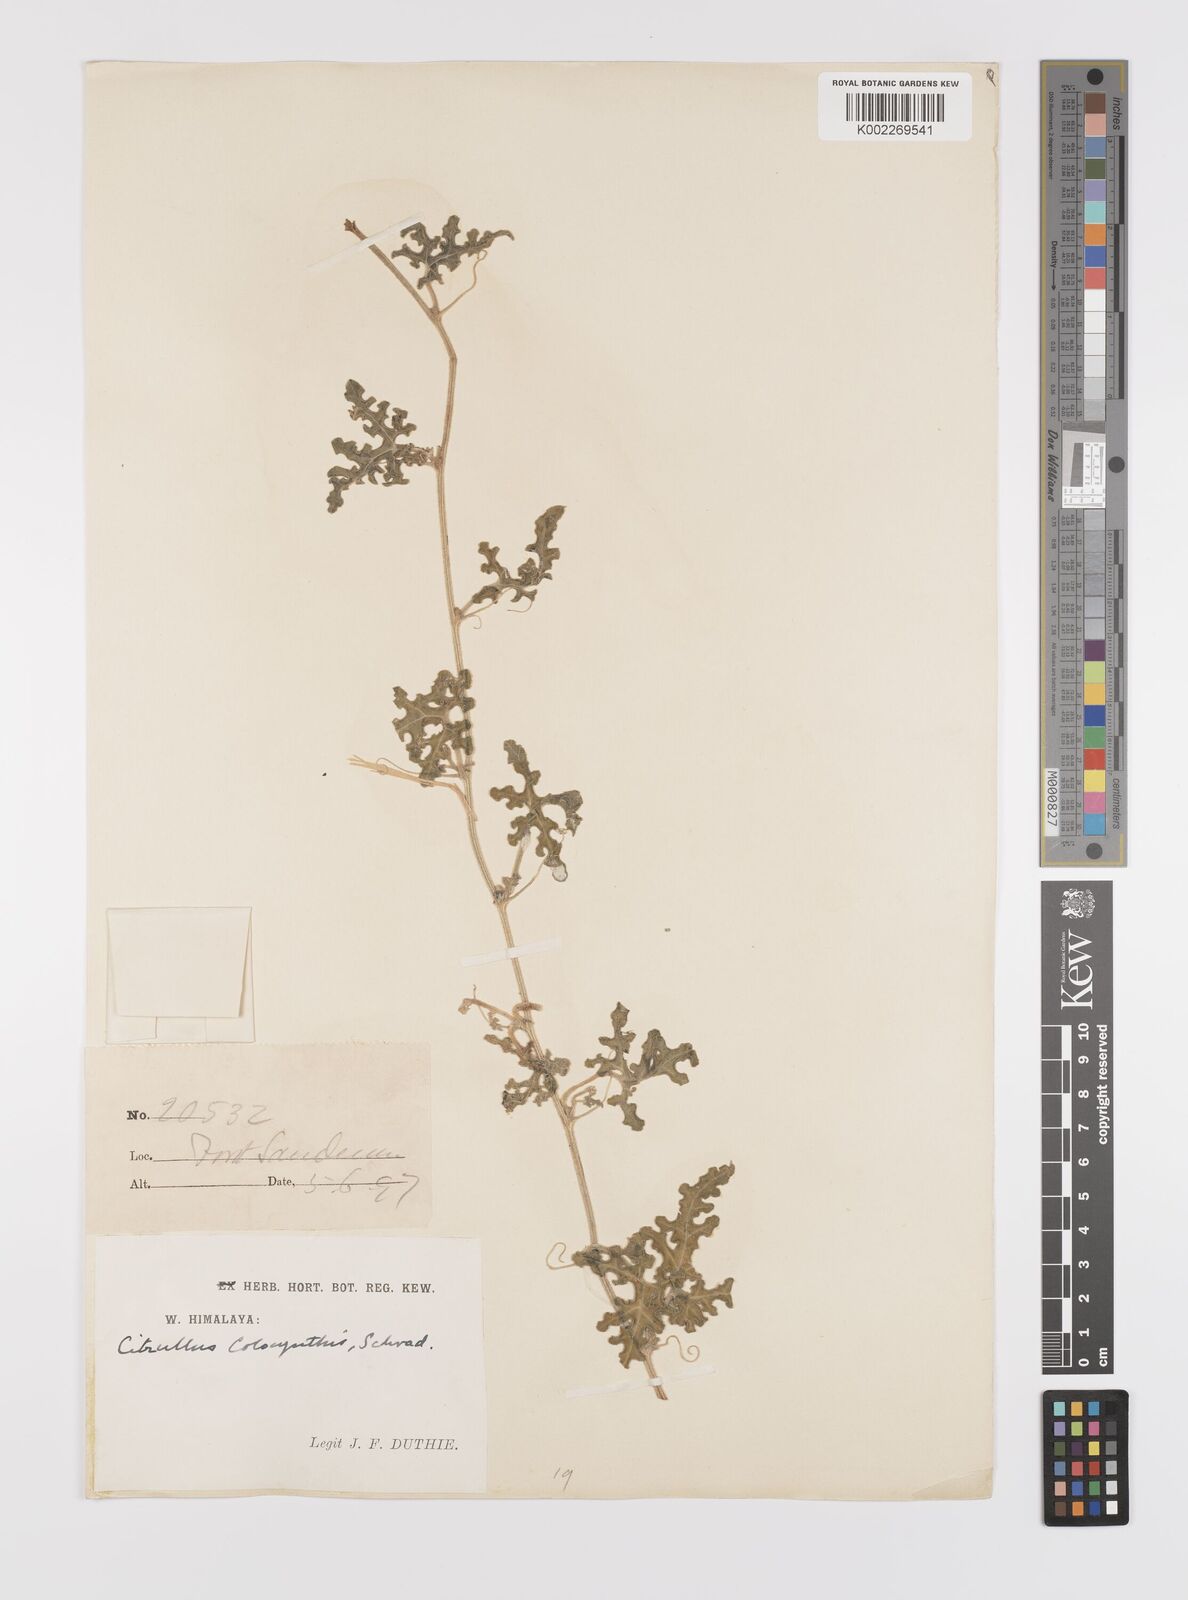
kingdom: Plantae
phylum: Tracheophyta
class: Magnoliopsida
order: Cucurbitales
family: Cucurbitaceae
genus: Citrullus
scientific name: Citrullus colocynthis
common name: Colocynth
